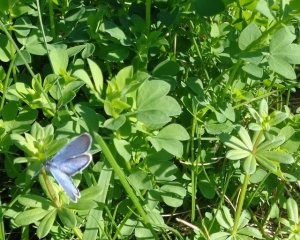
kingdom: Animalia
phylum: Arthropoda
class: Insecta
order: Lepidoptera
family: Lycaenidae
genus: Elkalyce
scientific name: Elkalyce comyntas
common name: Eastern Tailed-Blue
